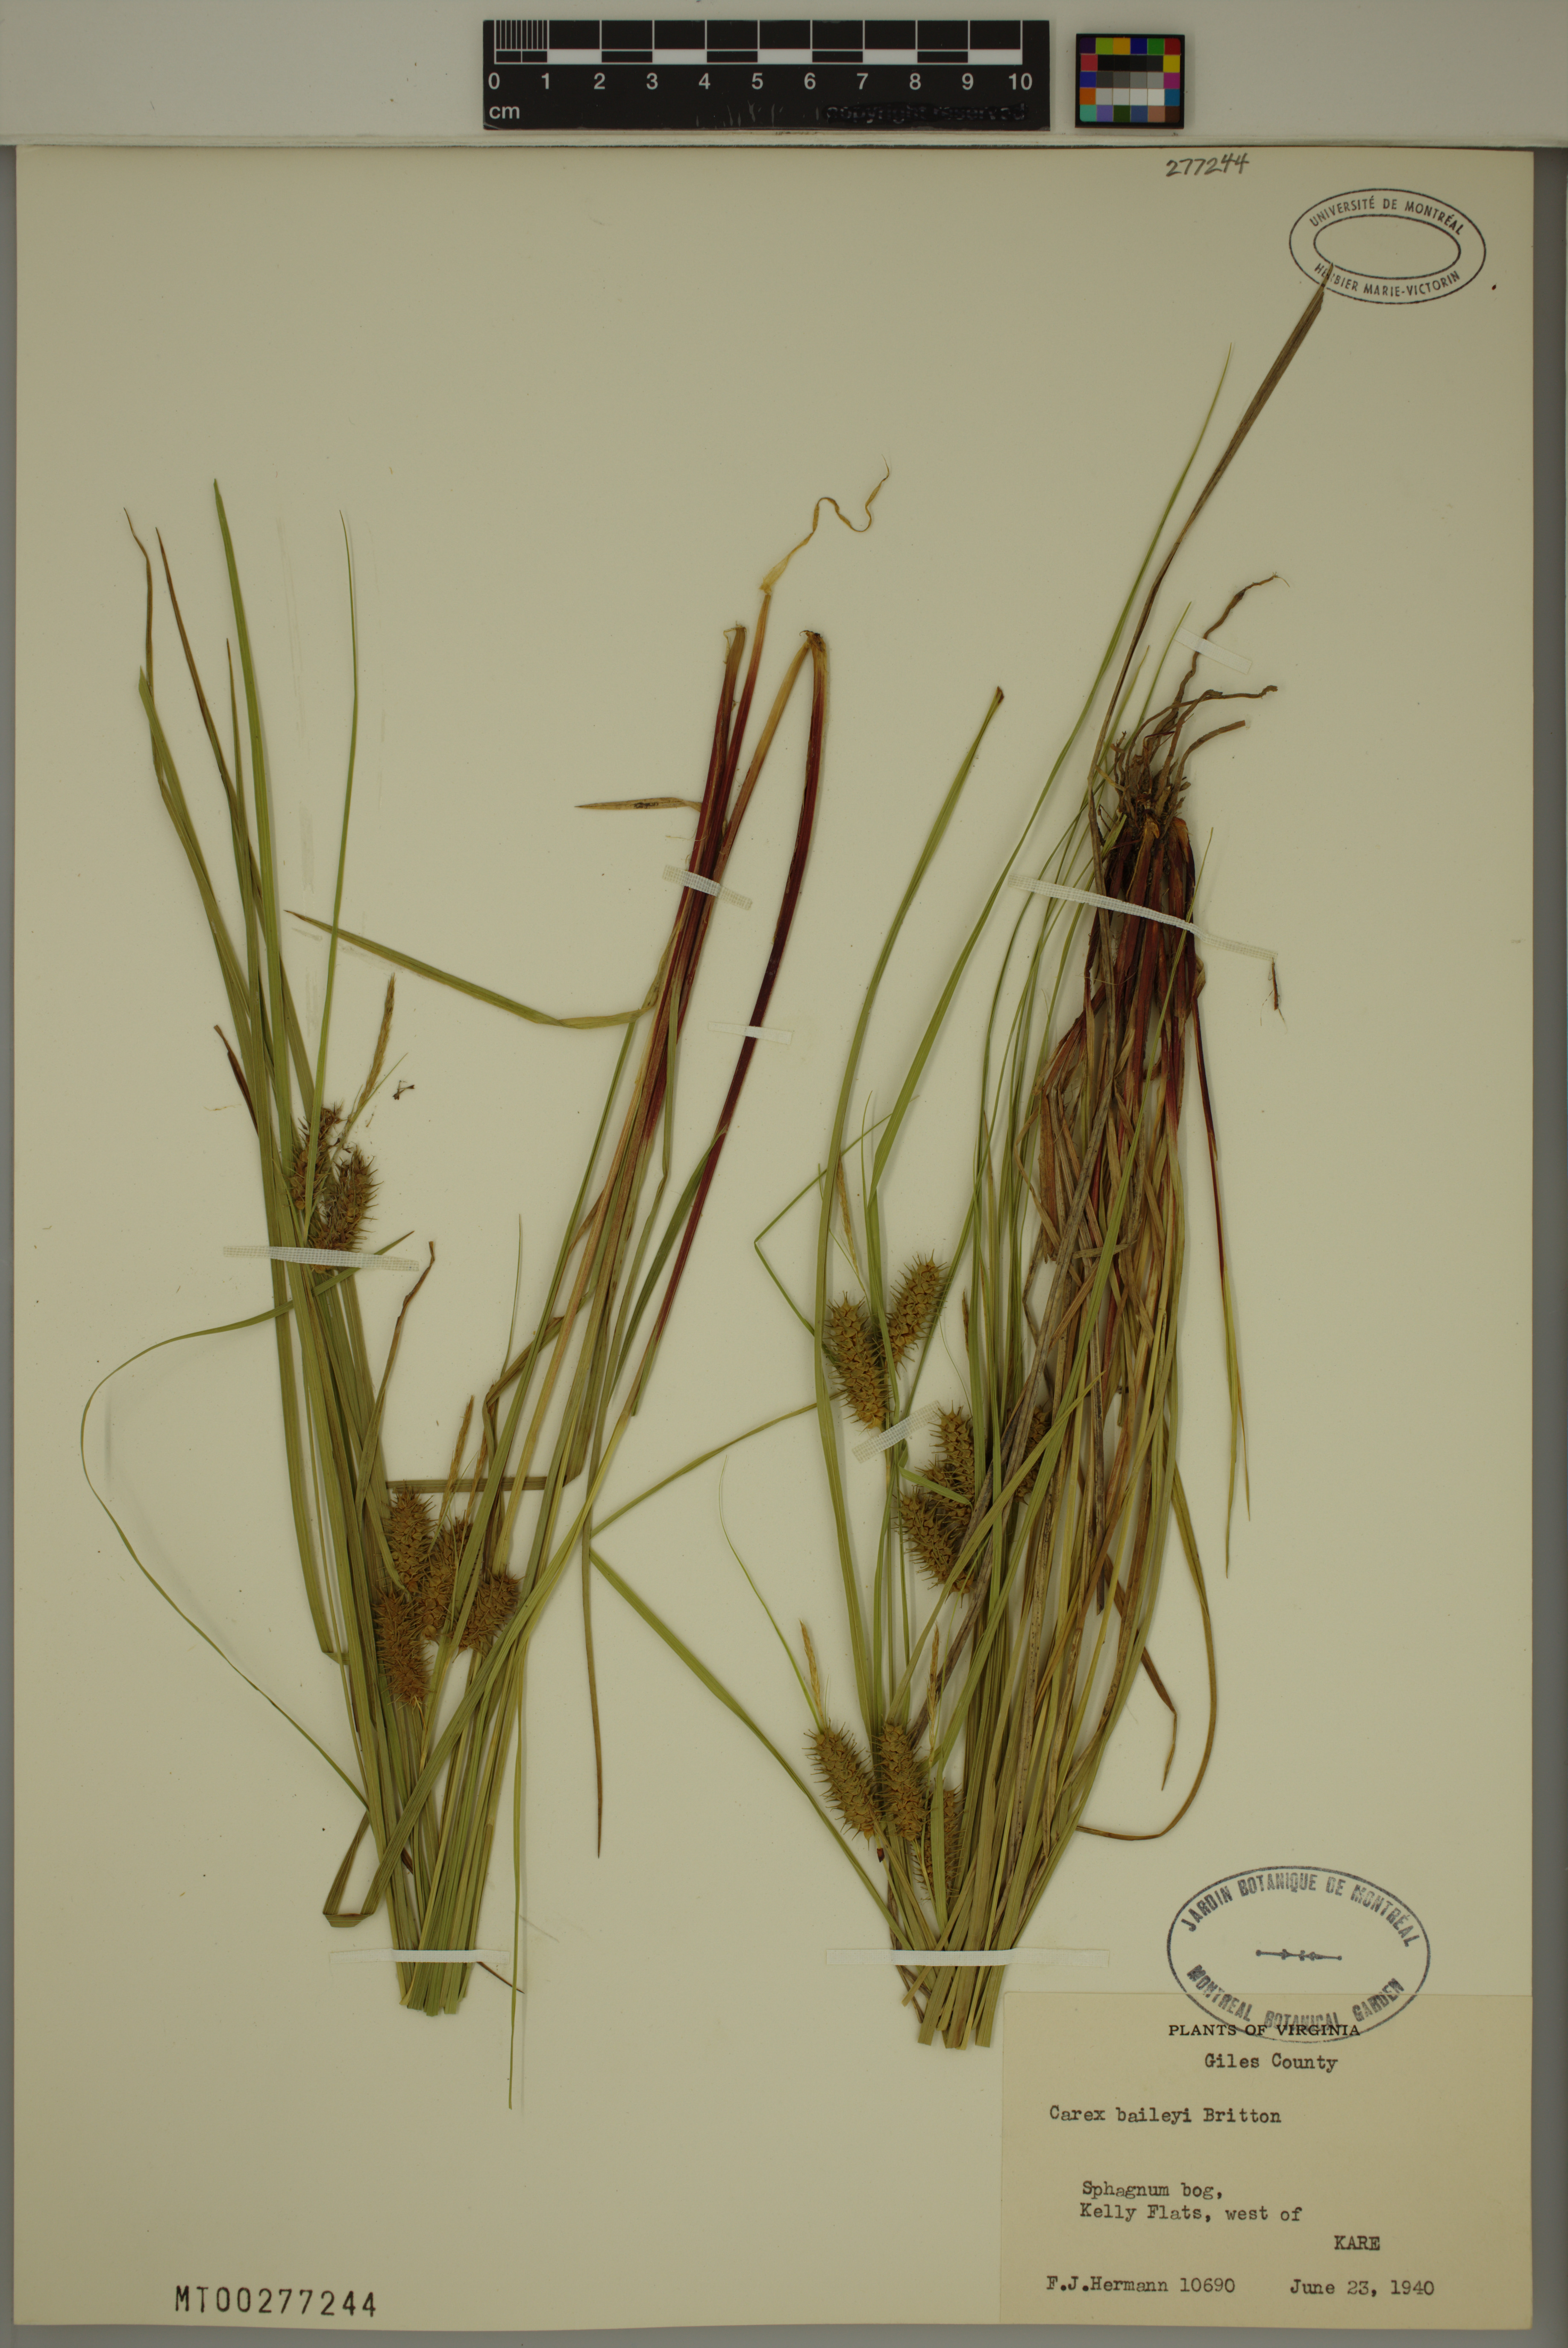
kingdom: Plantae
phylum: Tracheophyta
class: Liliopsida
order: Poales
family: Cyperaceae
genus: Carex
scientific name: Carex baileyi
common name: Bailey's sedge
